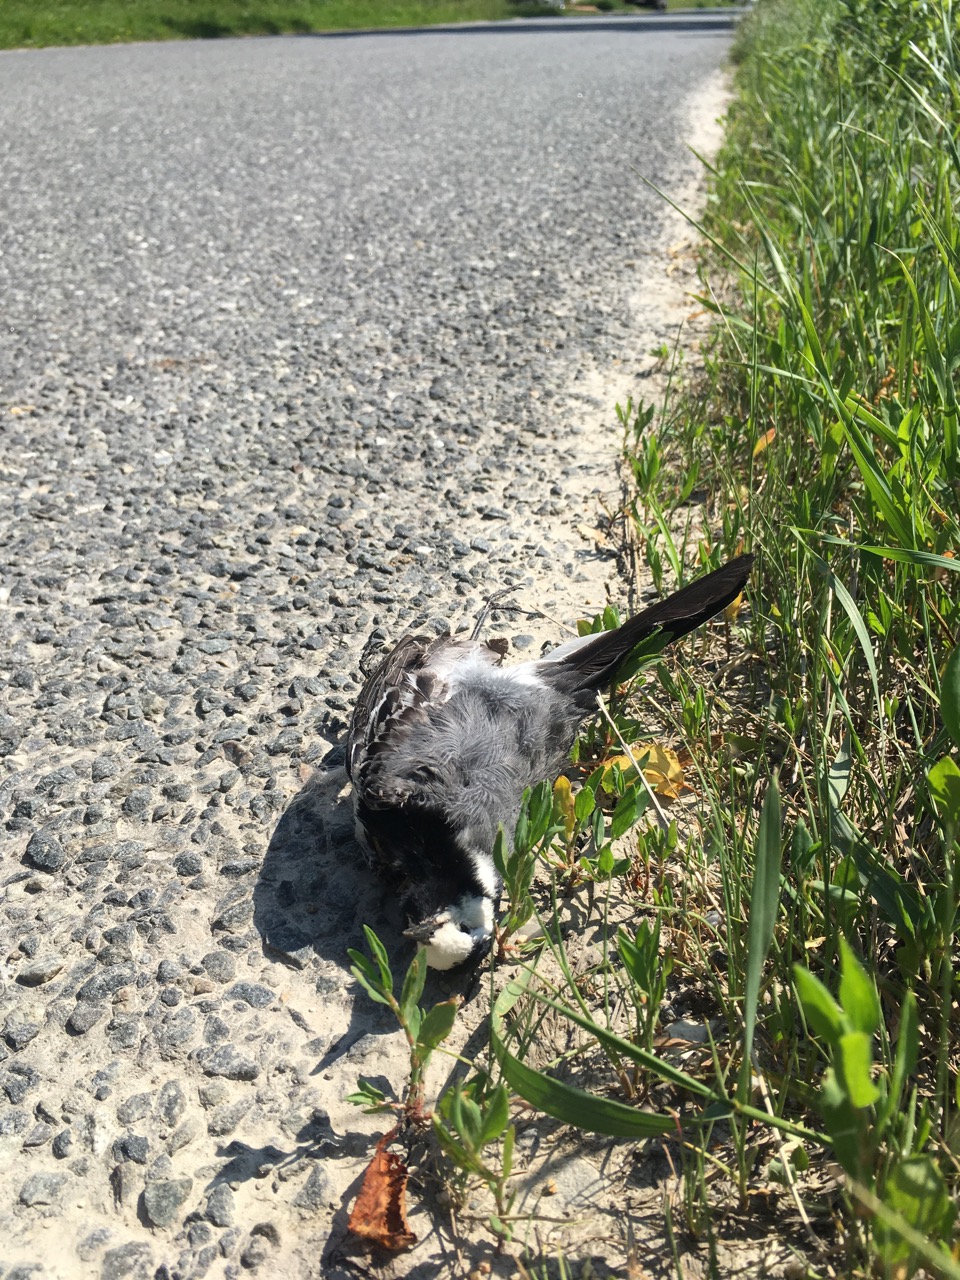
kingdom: Animalia
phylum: Chordata
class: Aves
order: Passeriformes
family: Motacillidae
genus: Motacilla
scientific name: Motacilla alba
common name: White wagtail
